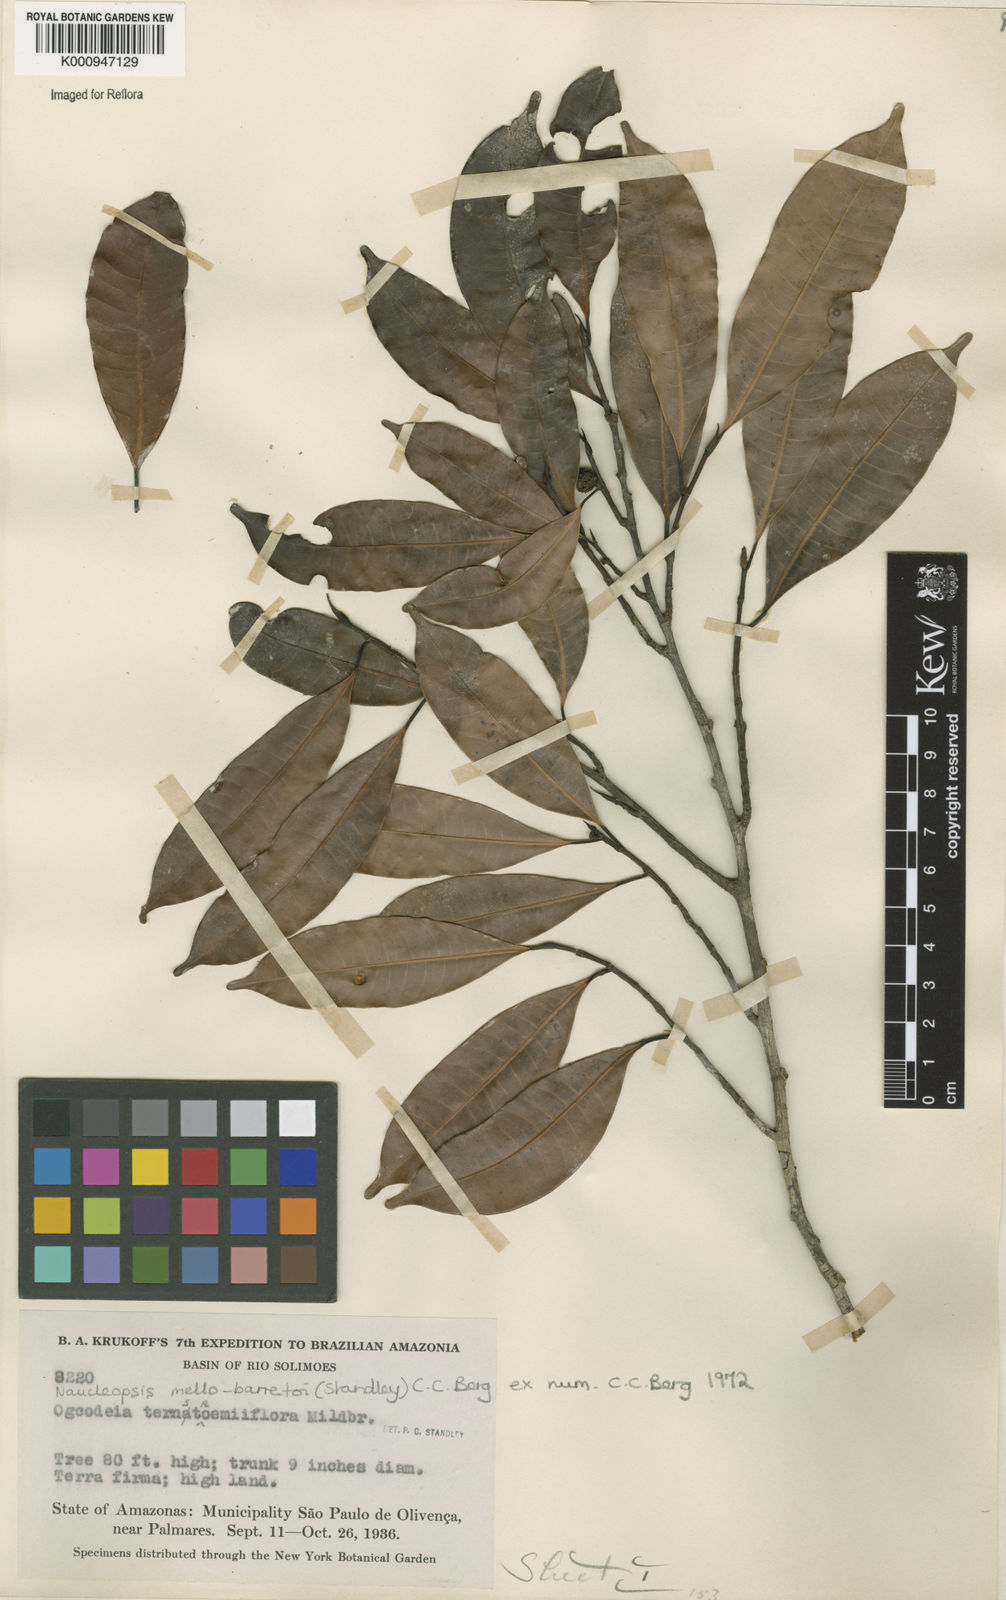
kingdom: Plantae
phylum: Tracheophyta
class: Magnoliopsida
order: Rosales
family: Moraceae
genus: Naucleopsis
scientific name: Naucleopsis oblongifolia
